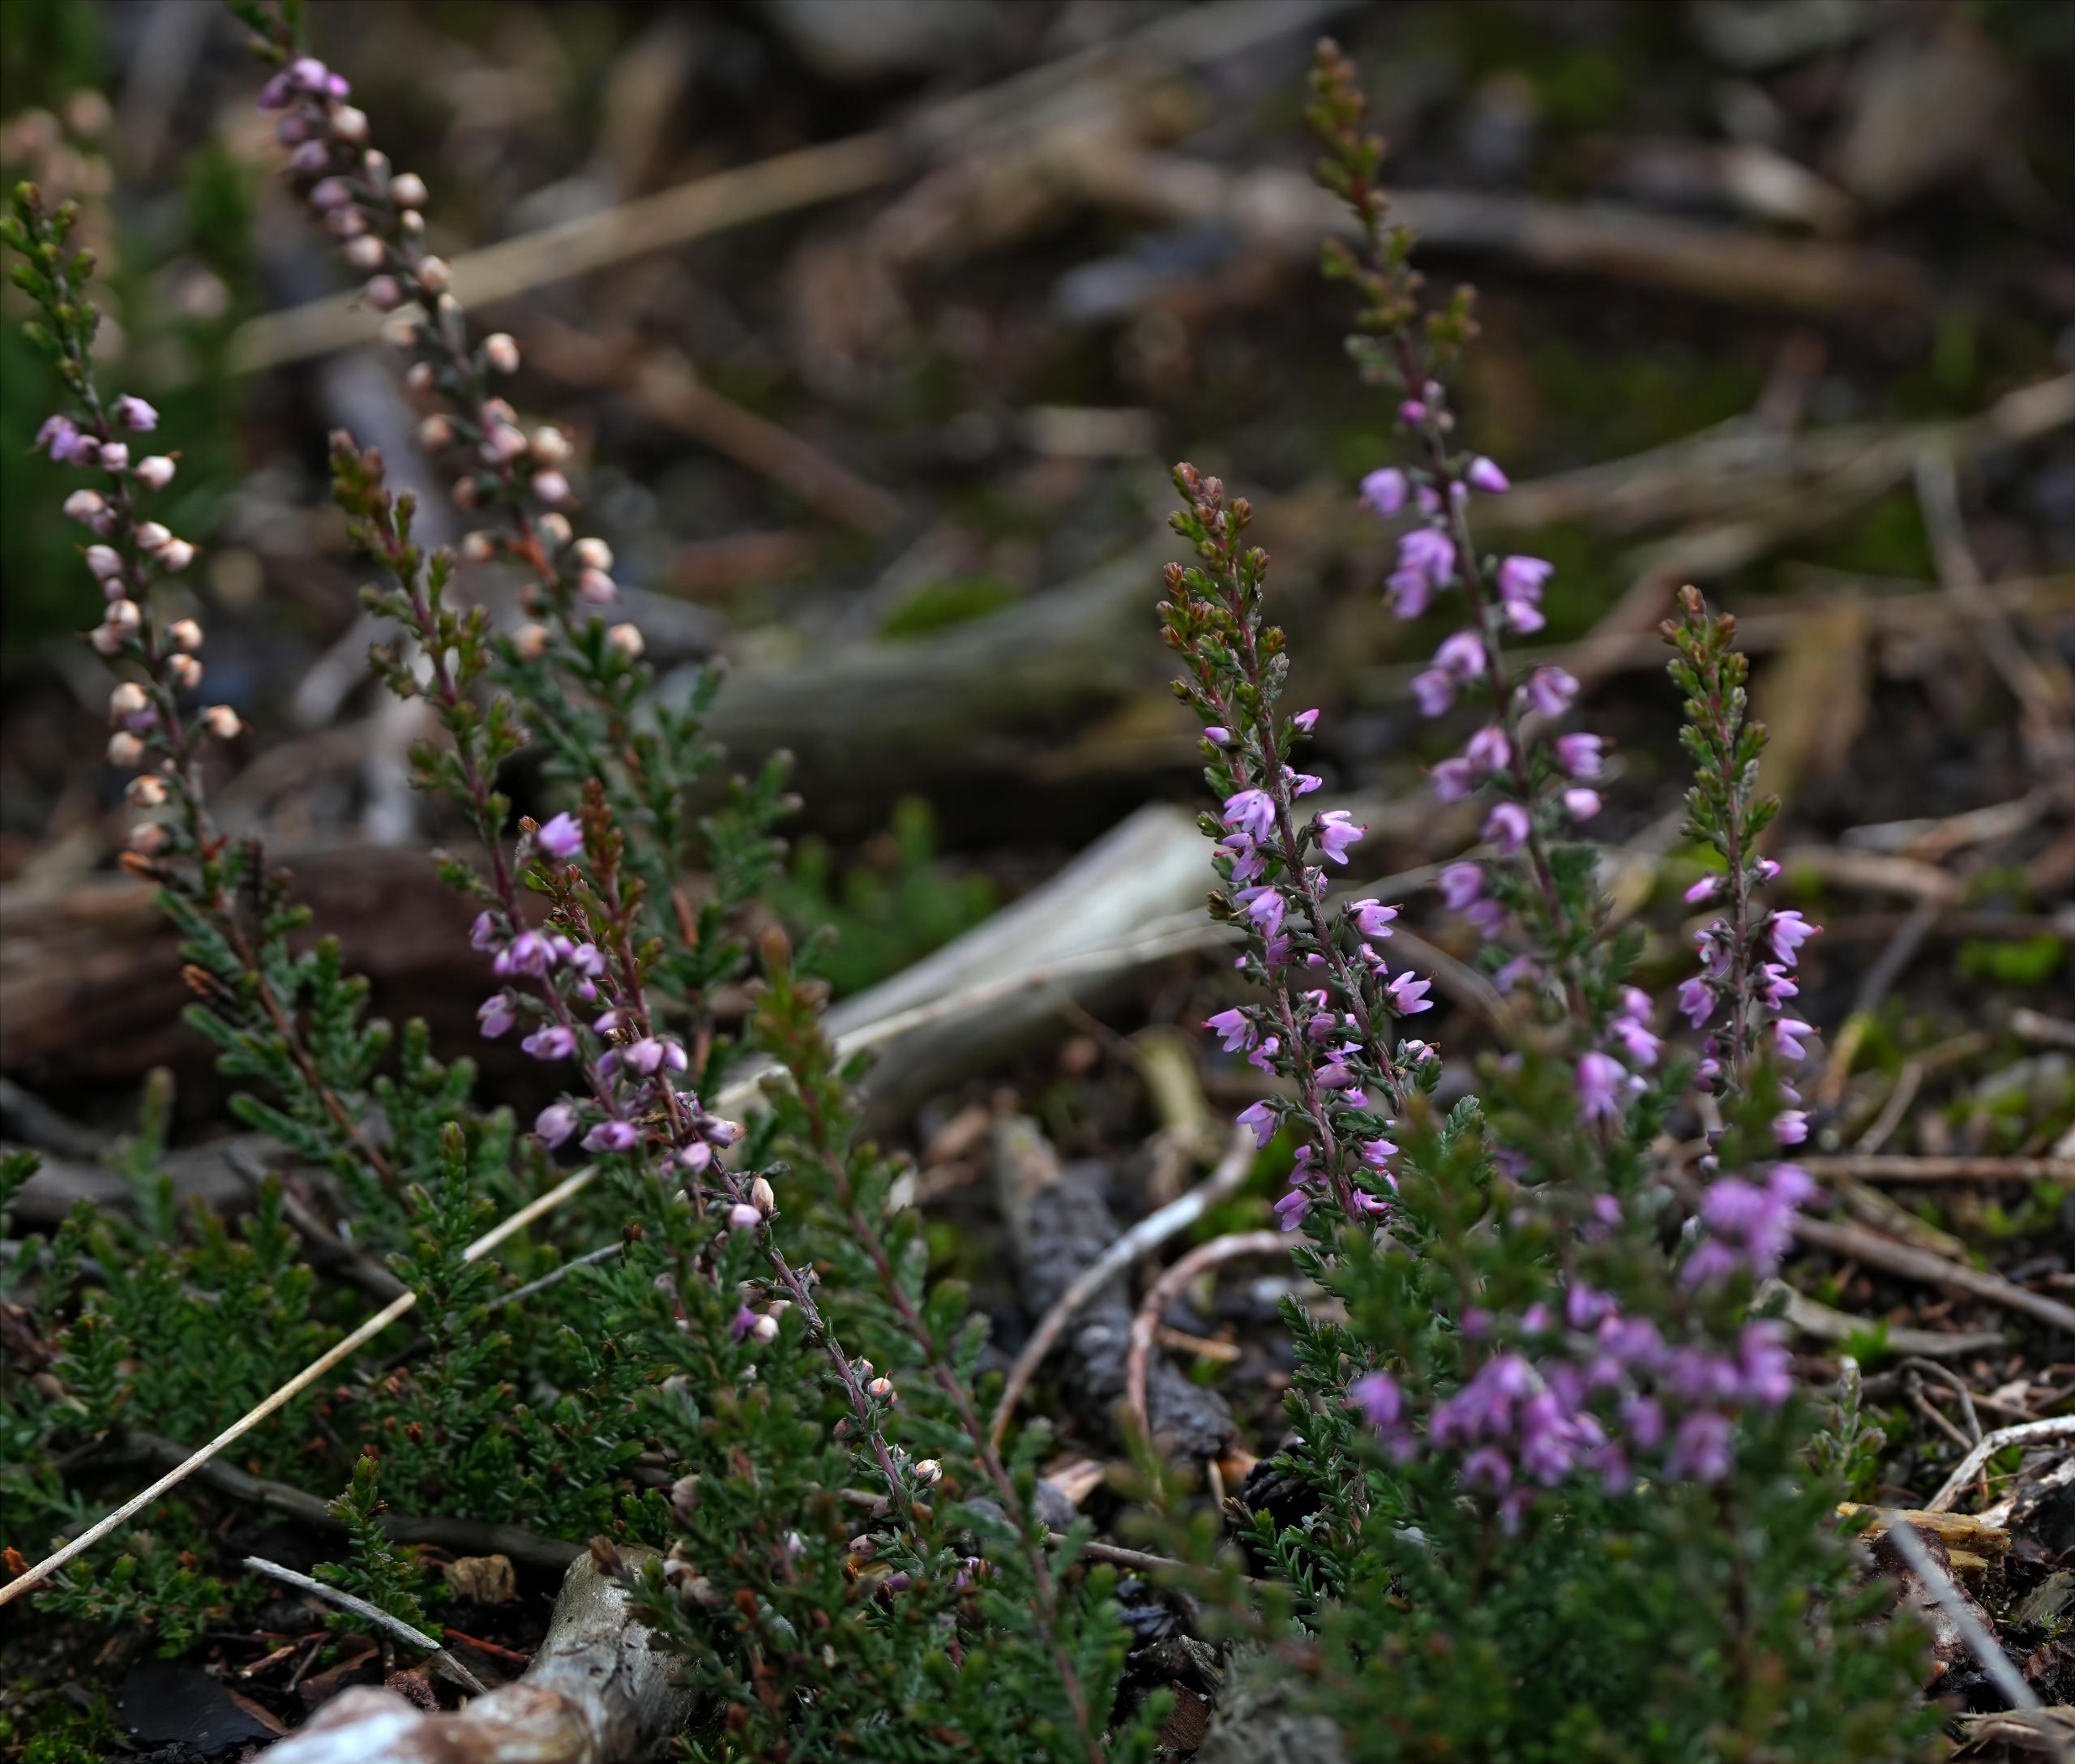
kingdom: Plantae
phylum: Tracheophyta
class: Magnoliopsida
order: Ericales
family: Ericaceae
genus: Calluna
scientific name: Calluna vulgaris
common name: Hedelyng
